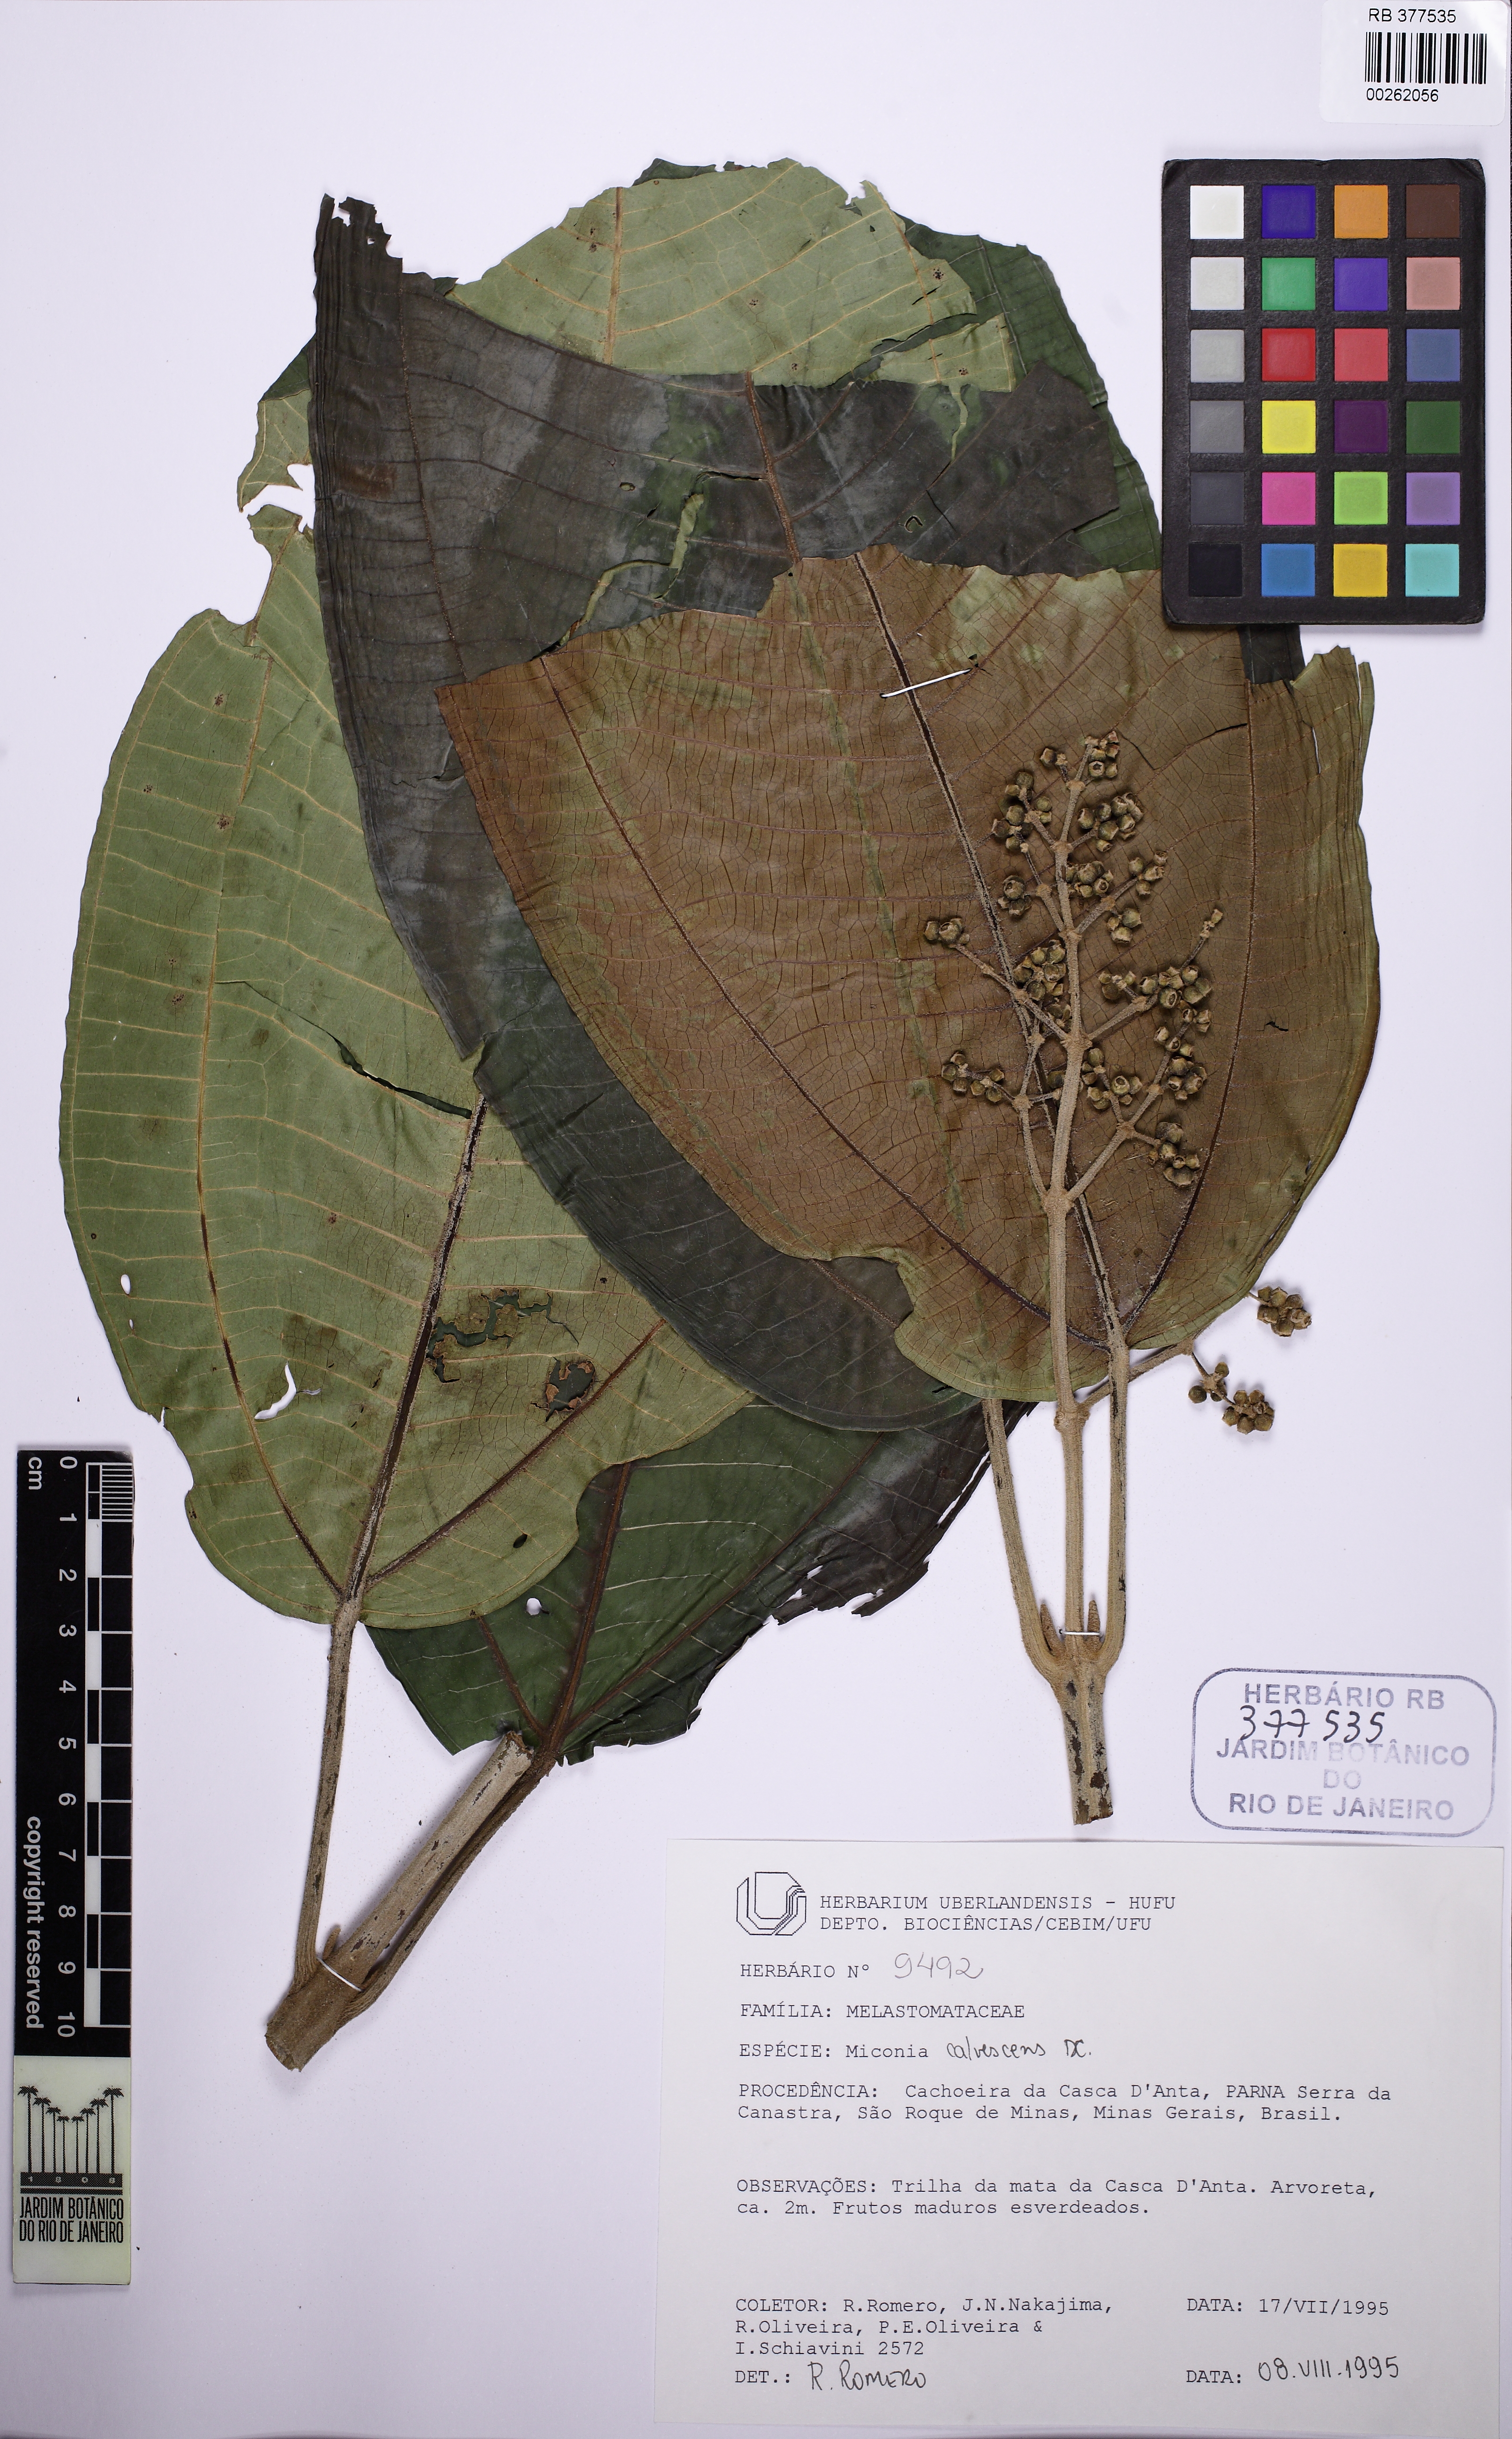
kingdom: Plantae
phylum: Tracheophyta
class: Magnoliopsida
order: Myrtales
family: Melastomataceae
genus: Miconia
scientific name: Miconia calvescens
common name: Purple plague
